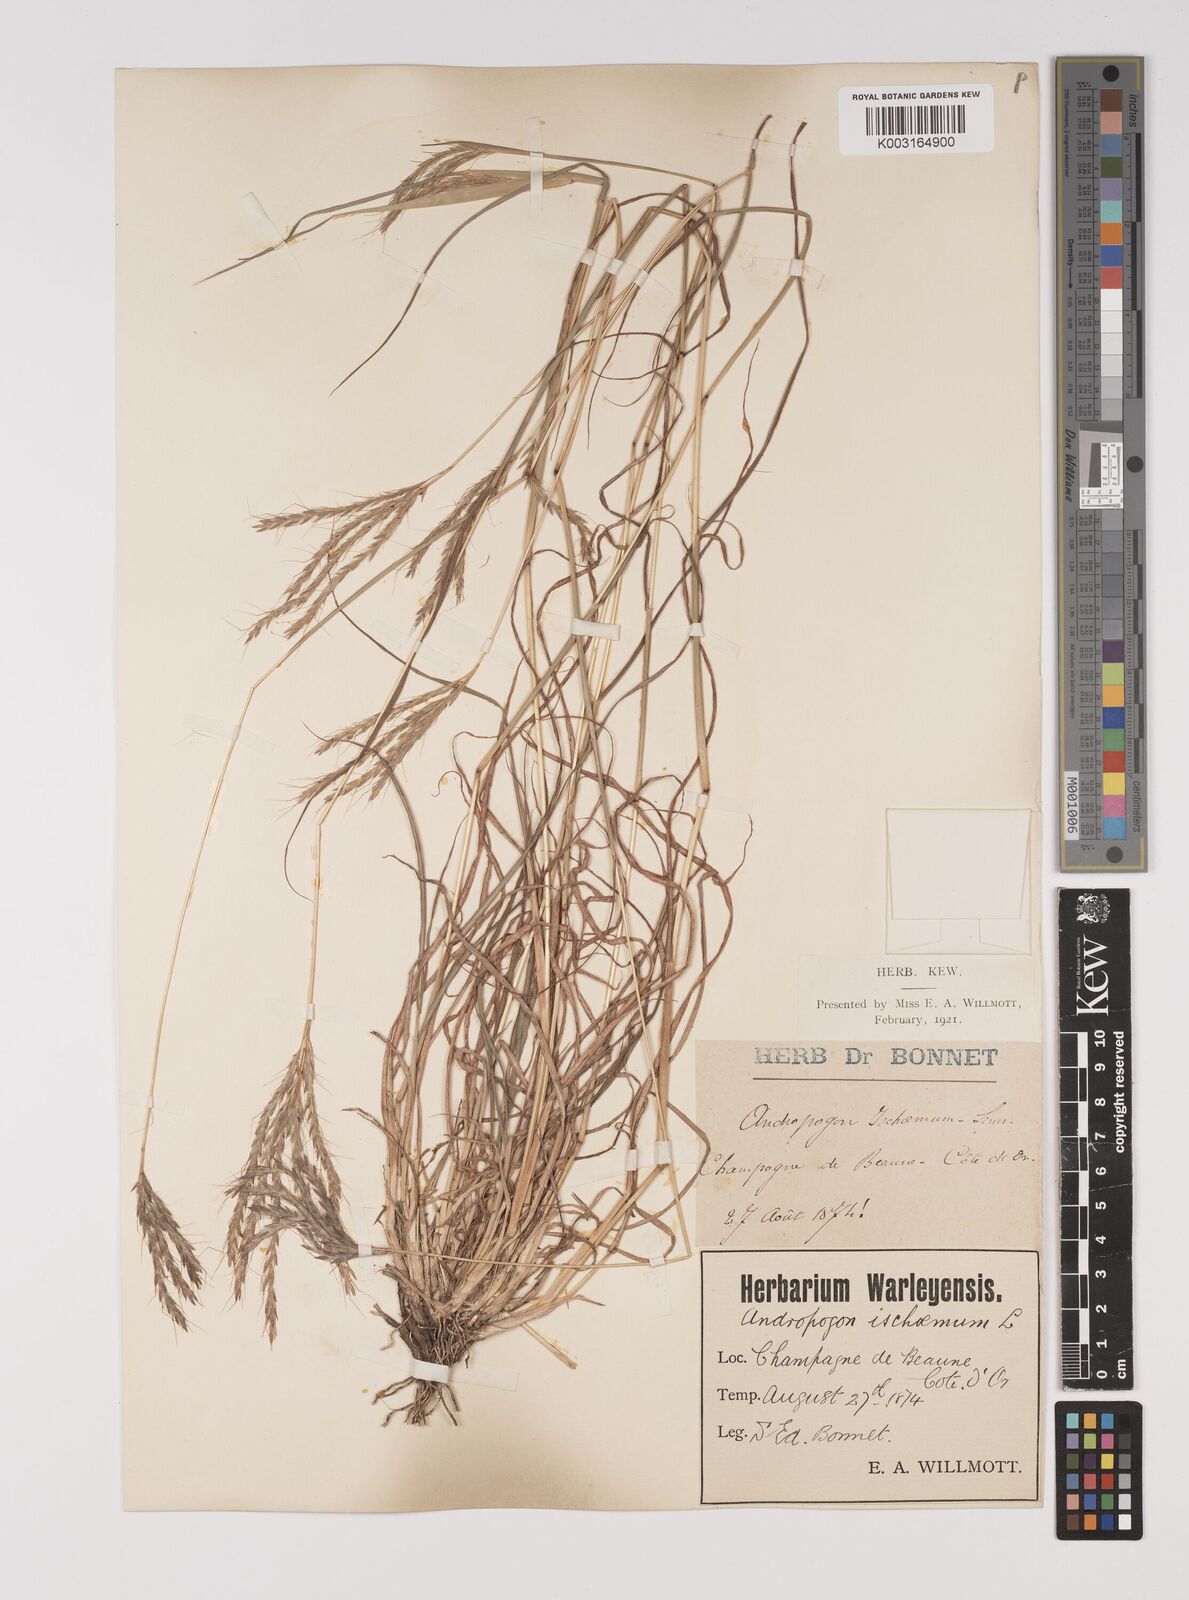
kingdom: Plantae
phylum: Tracheophyta
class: Liliopsida
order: Poales
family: Poaceae
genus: Bothriochloa
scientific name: Bothriochloa ischaemum
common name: Yellow bluestem
